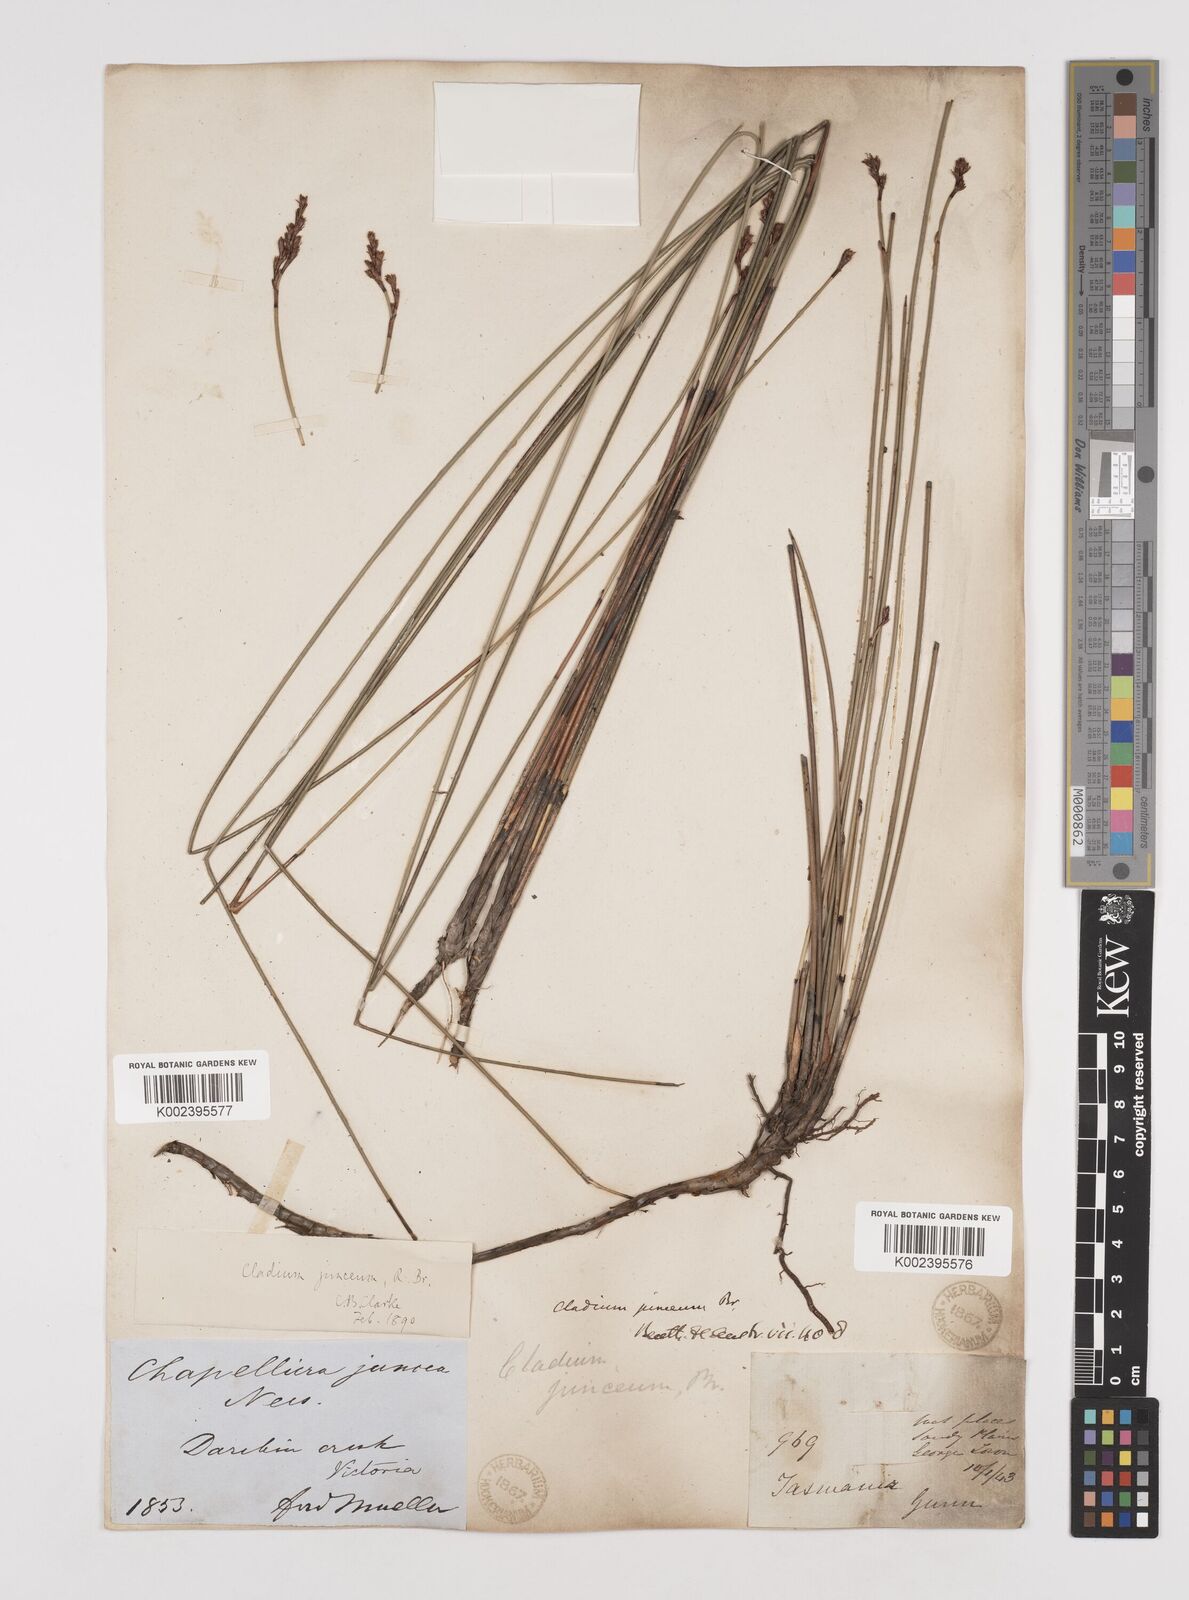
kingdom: Plantae
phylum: Tracheophyta
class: Liliopsida
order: Poales
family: Cyperaceae
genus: Machaerina
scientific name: Machaerina juncea
